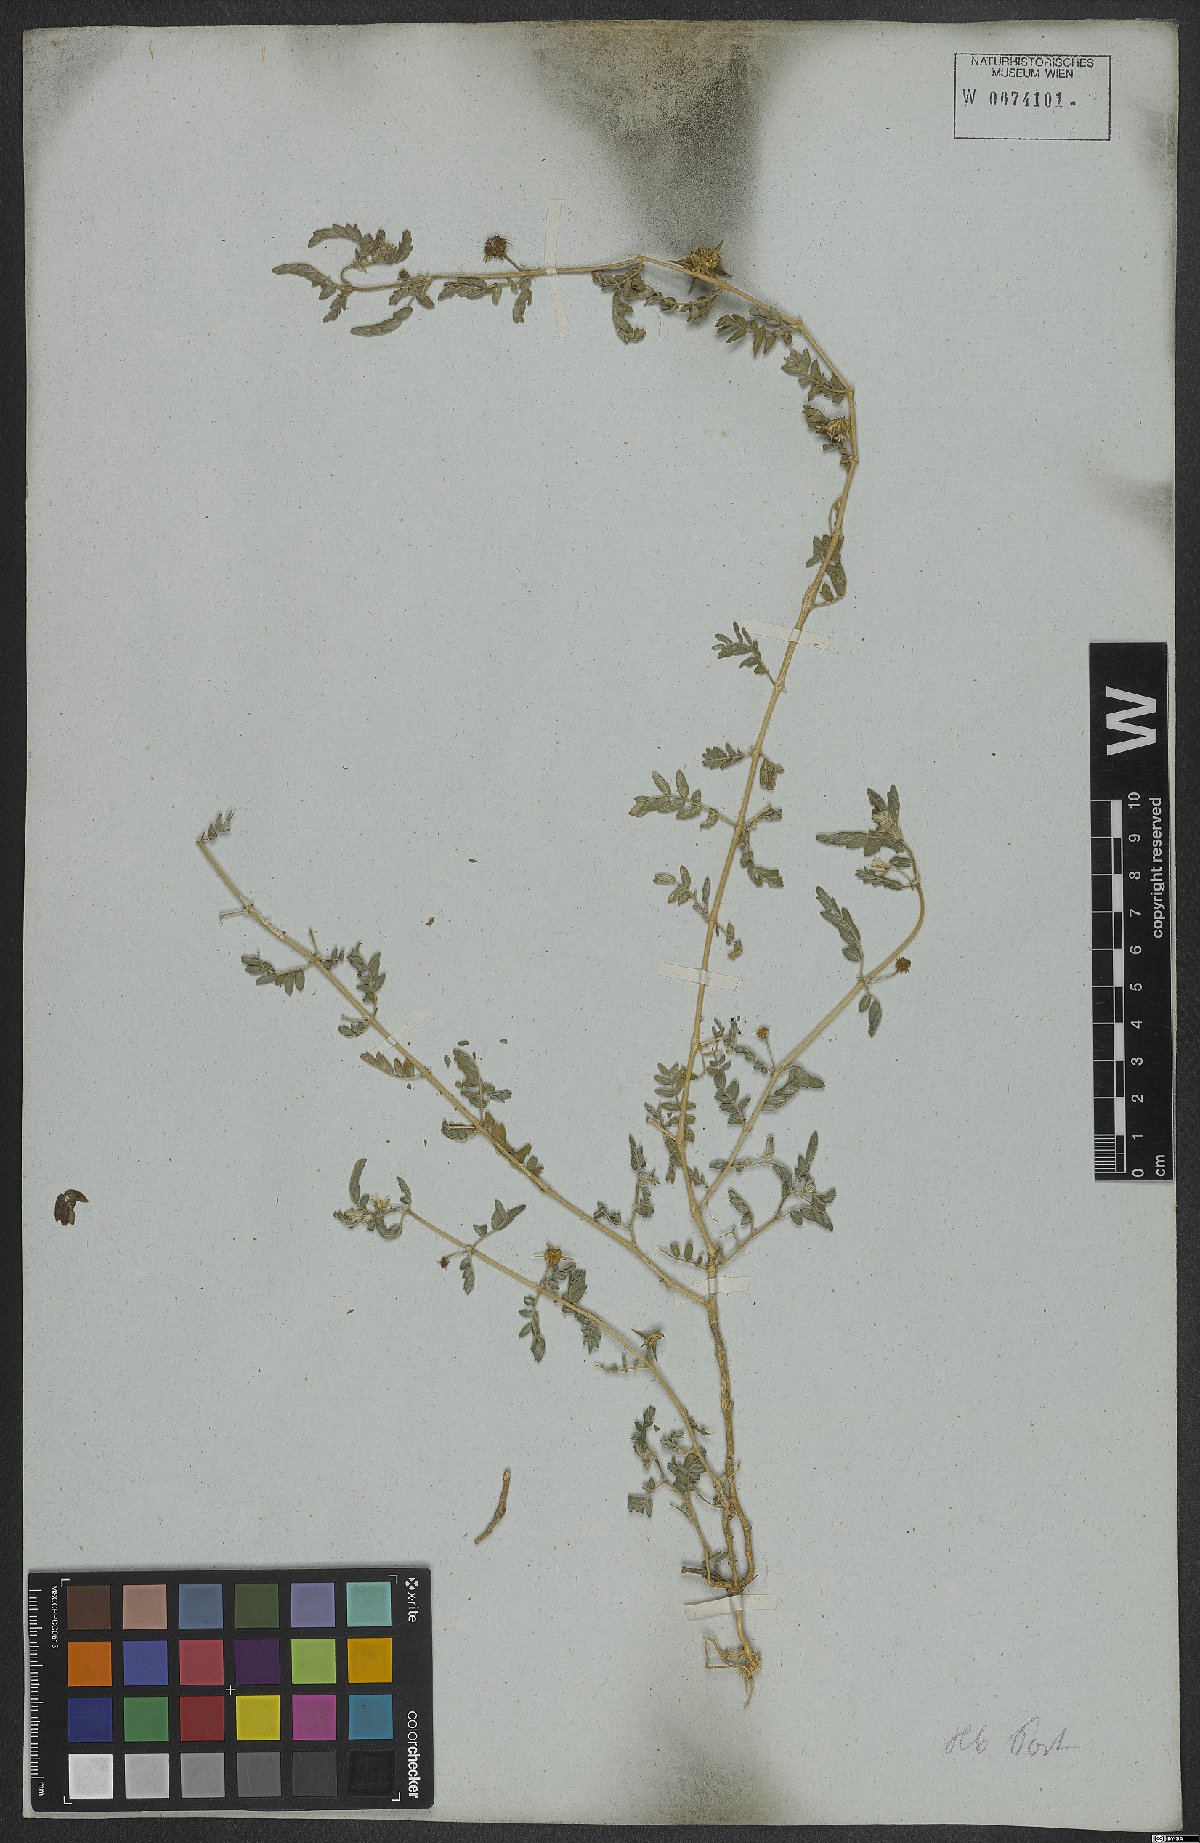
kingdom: Plantae
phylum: Tracheophyta
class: Magnoliopsida
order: Zygophyllales
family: Zygophyllaceae
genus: Tribulus
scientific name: Tribulus terrestris
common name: Puncturevine
